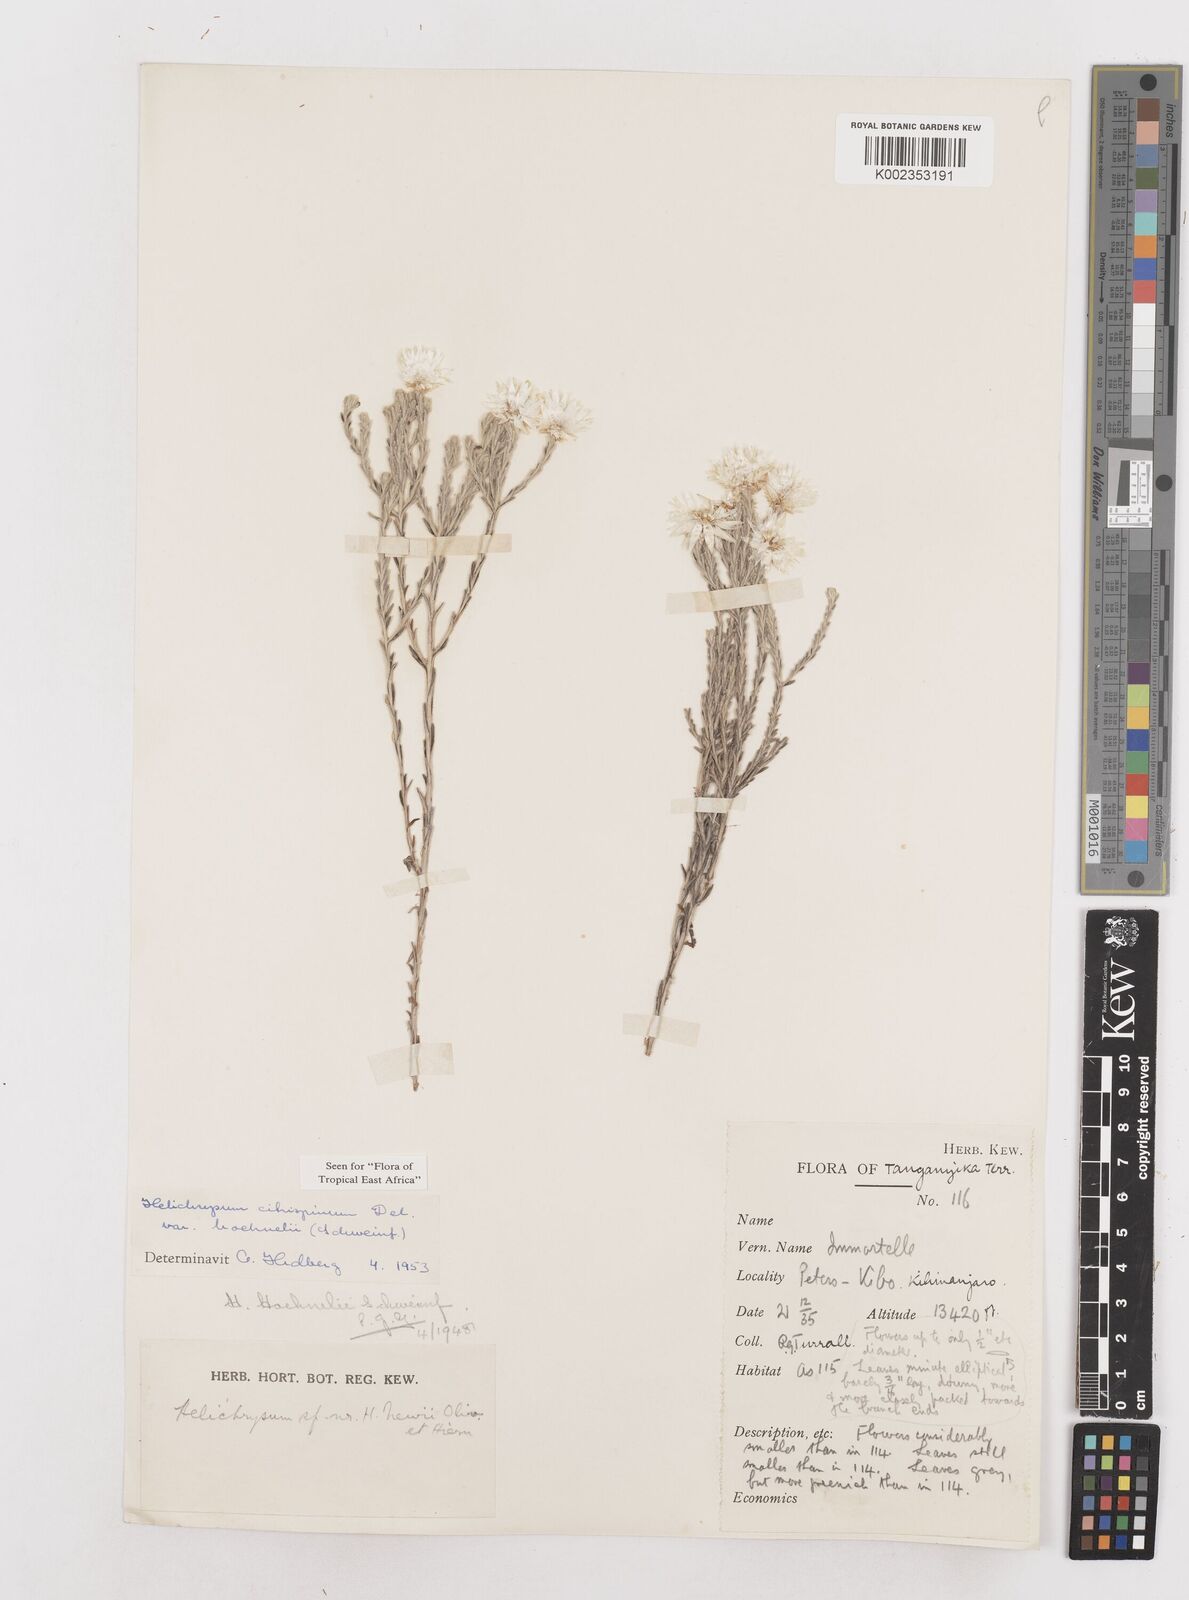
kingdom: Plantae
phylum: Tracheophyta
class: Magnoliopsida
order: Asterales
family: Asteraceae
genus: Helichrysum
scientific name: Helichrysum citrispinum
